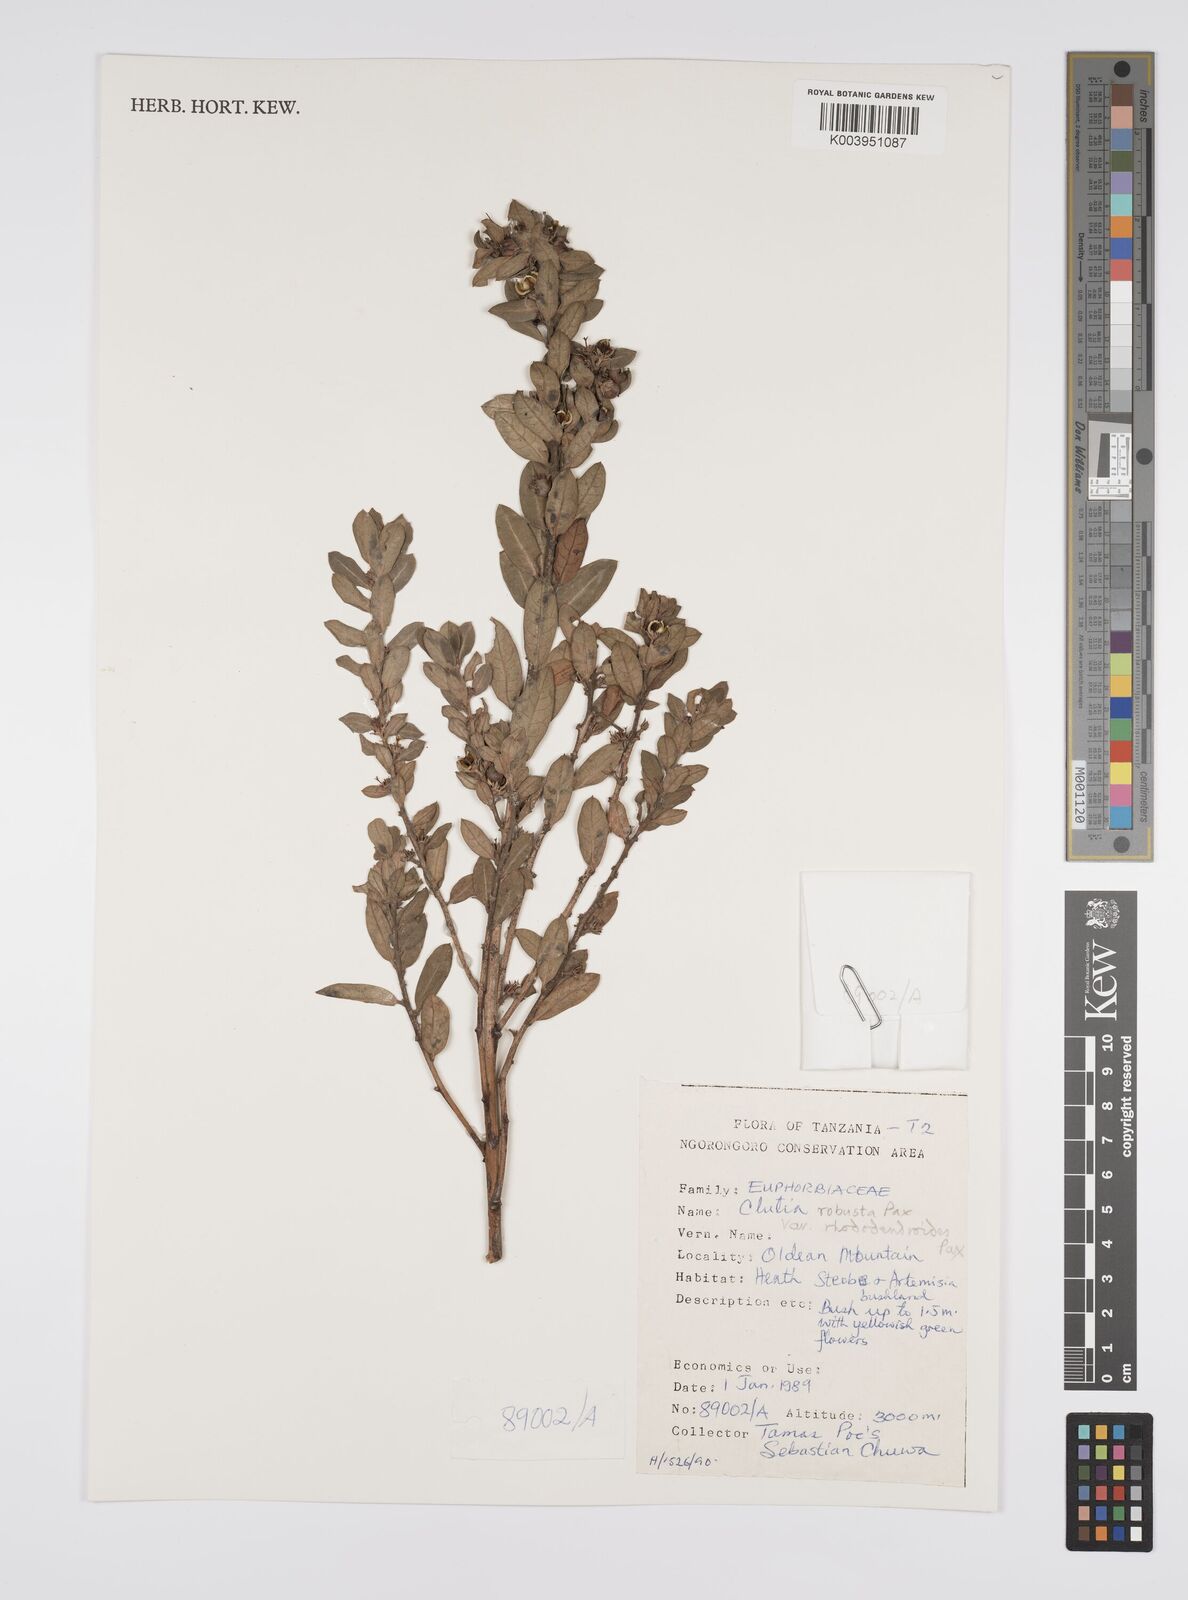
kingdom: Plantae
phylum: Tracheophyta
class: Magnoliopsida
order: Malpighiales
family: Peraceae
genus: Clutia
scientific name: Clutia kilimandscharica
